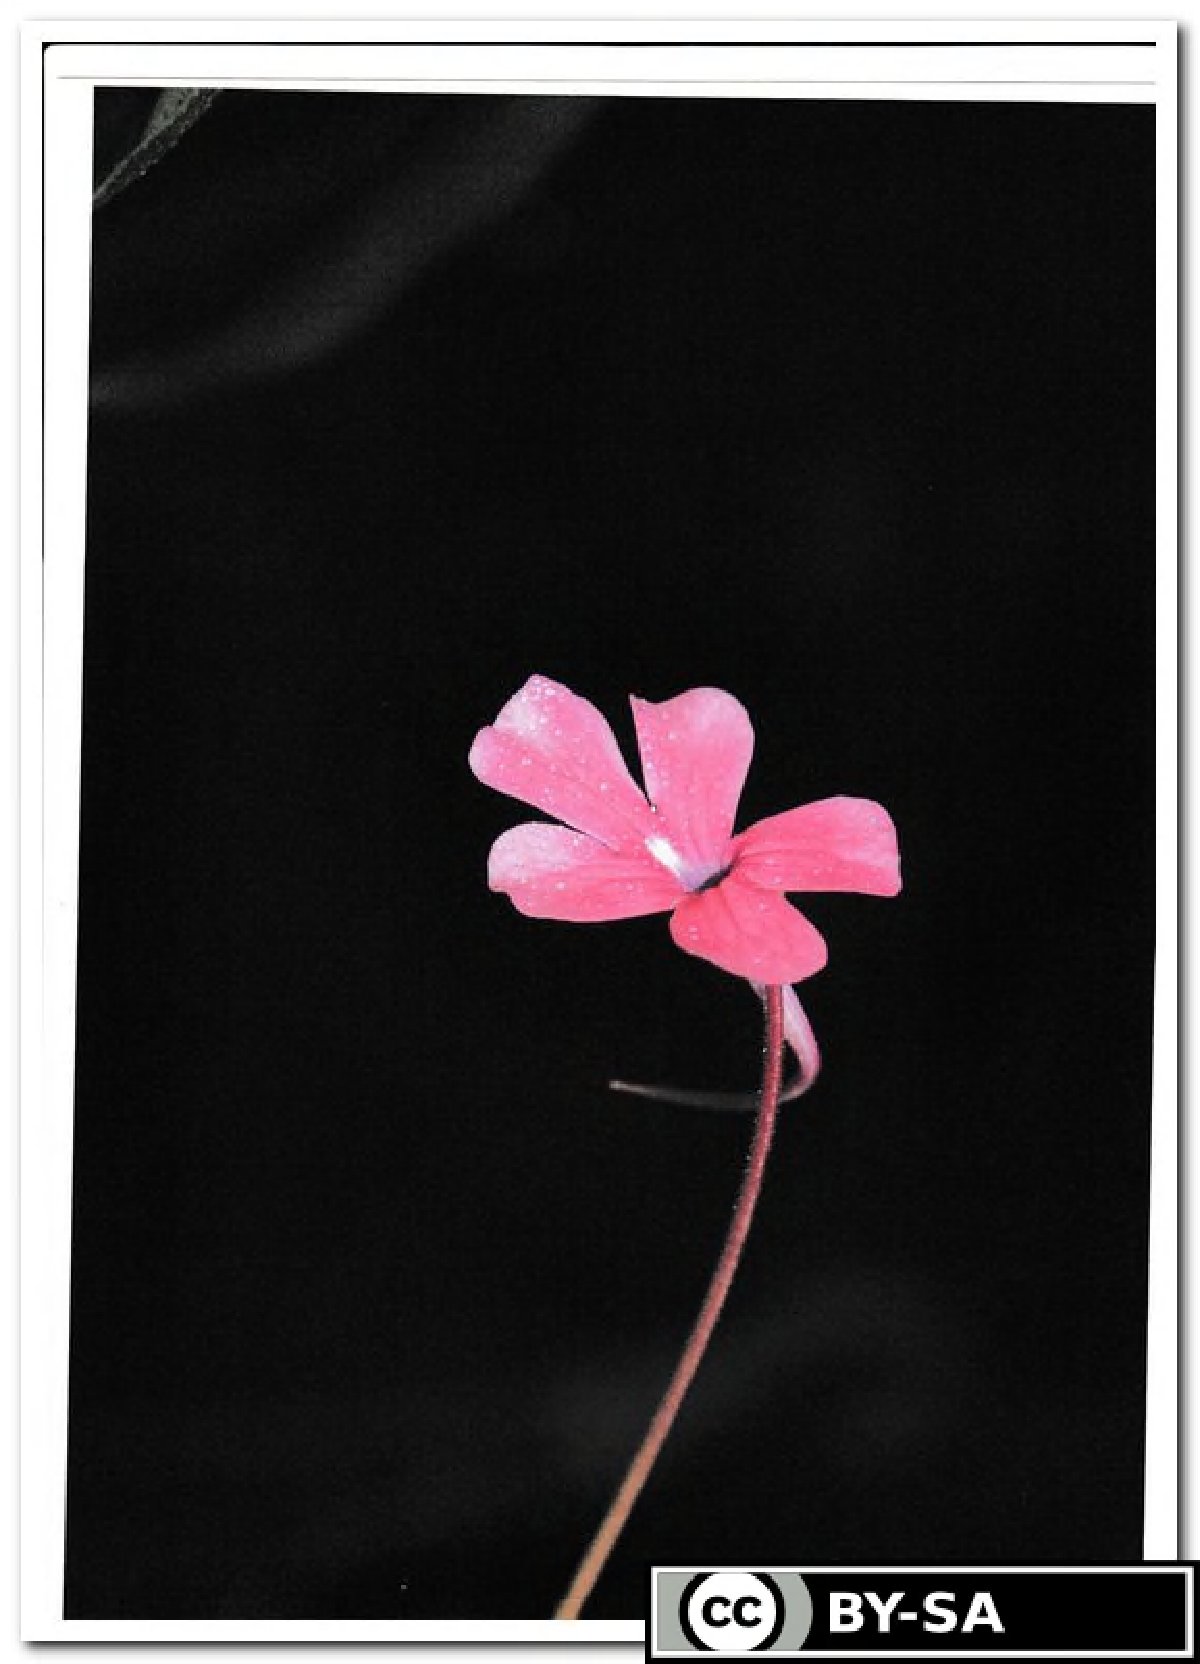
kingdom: Plantae
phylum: Tracheophyta
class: Magnoliopsida
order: Lamiales
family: Lentibulariaceae
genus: Pinguicula
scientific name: Pinguicula laueana
